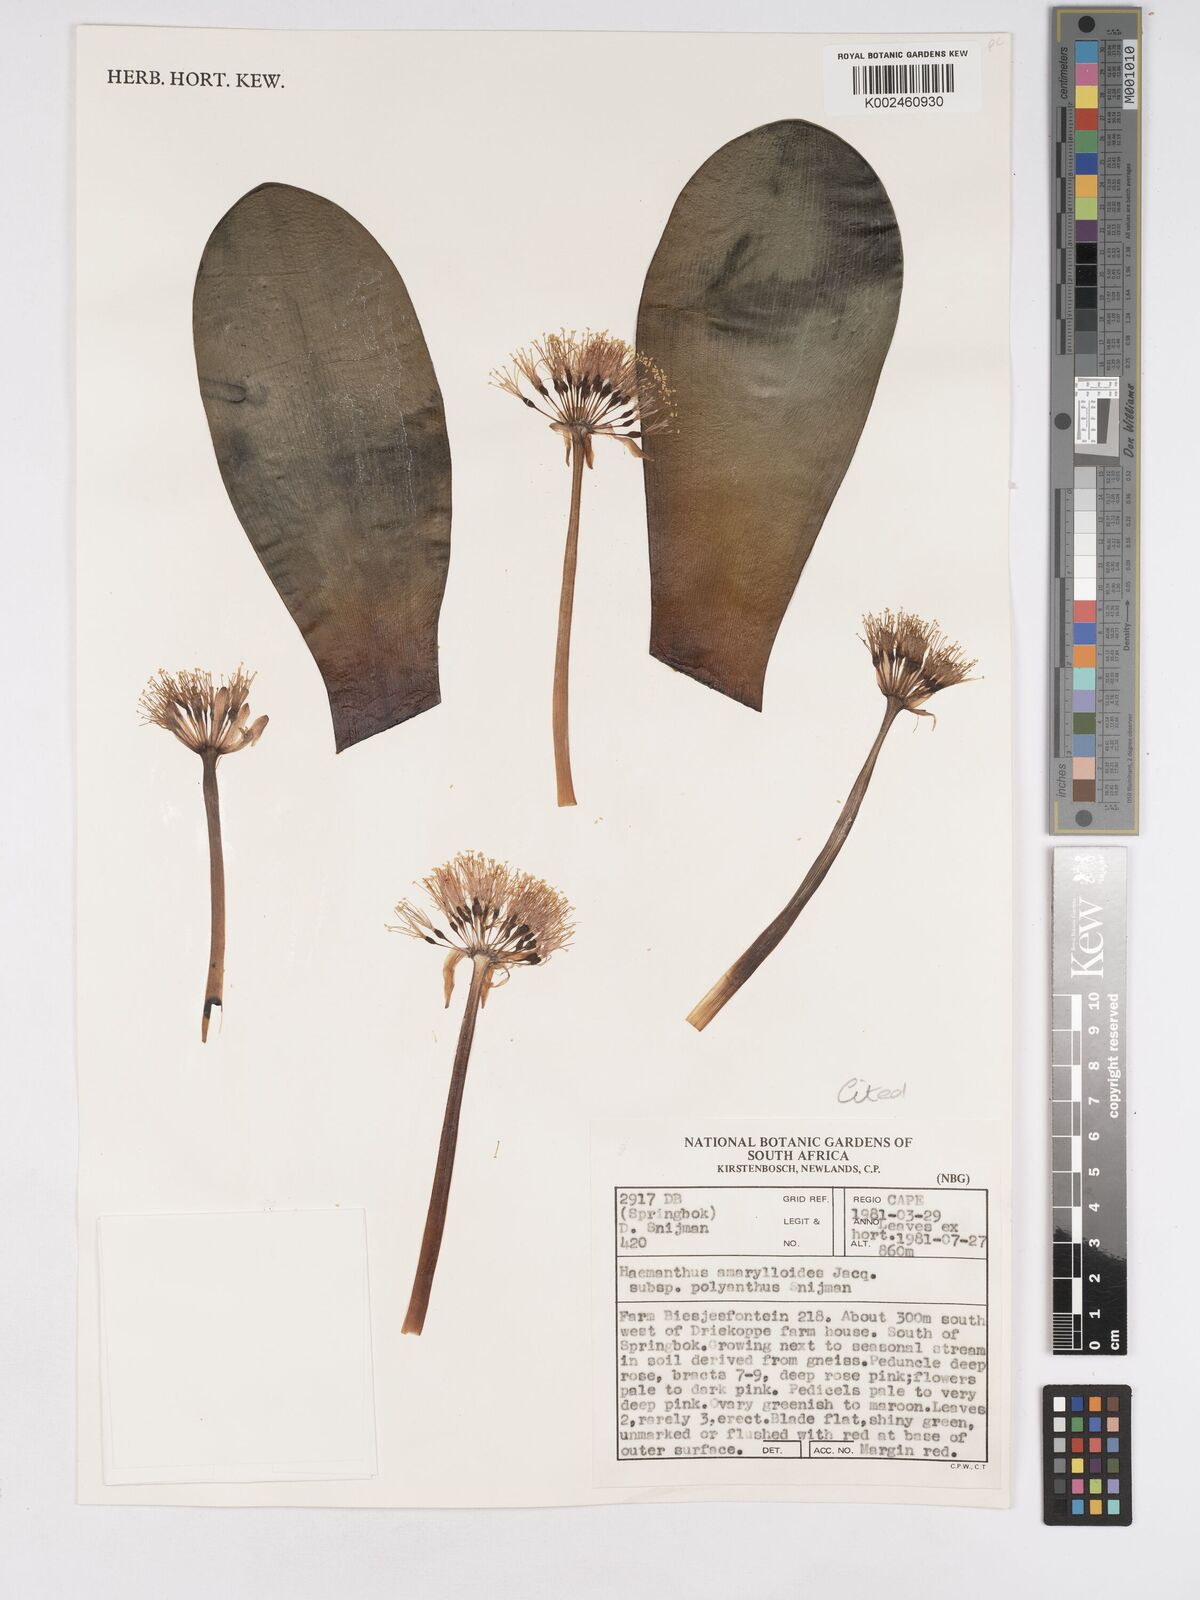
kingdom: Plantae
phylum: Tracheophyta
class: Liliopsida
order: Asparagales
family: Amaryllidaceae
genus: Haemanthus
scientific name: Haemanthus amarylloides
